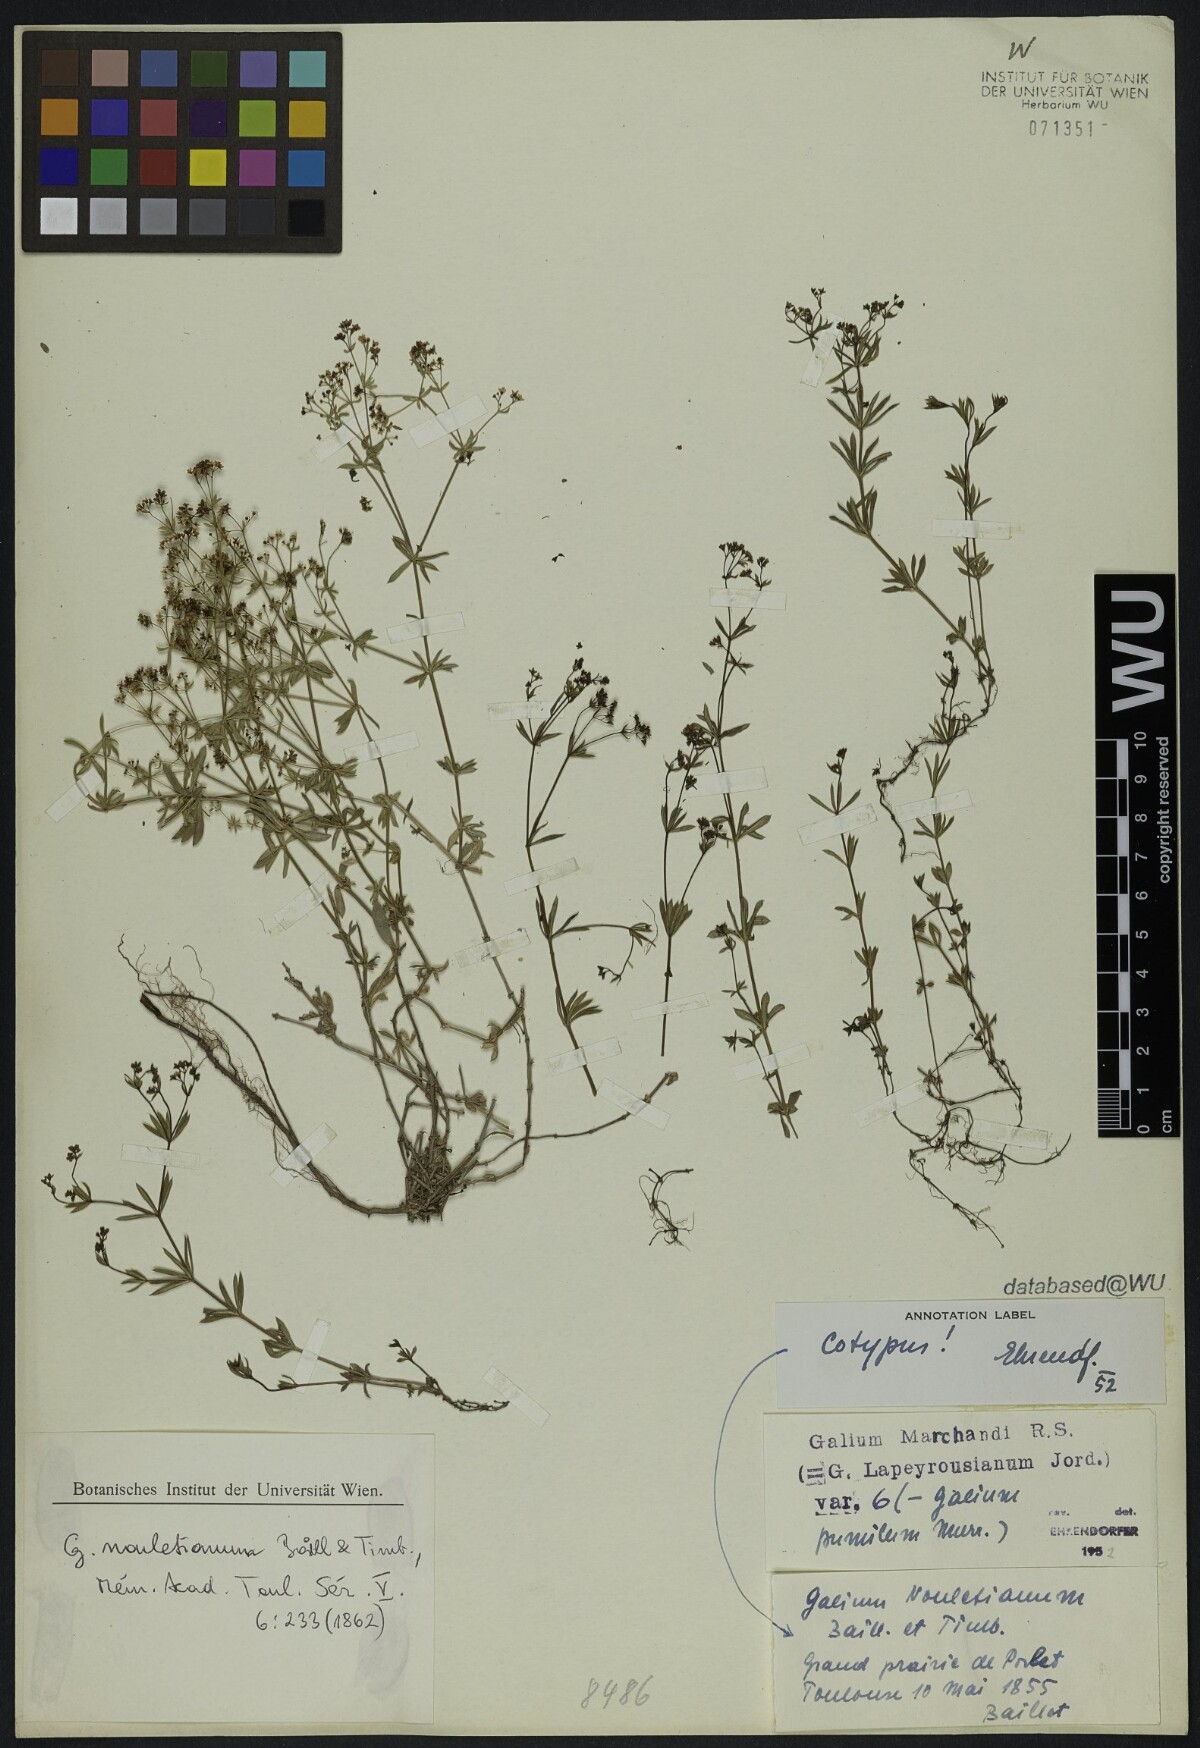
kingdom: Plantae
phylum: Tracheophyta
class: Magnoliopsida
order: Gentianales
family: Rubiaceae
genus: Galium
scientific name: Galium papillosum
